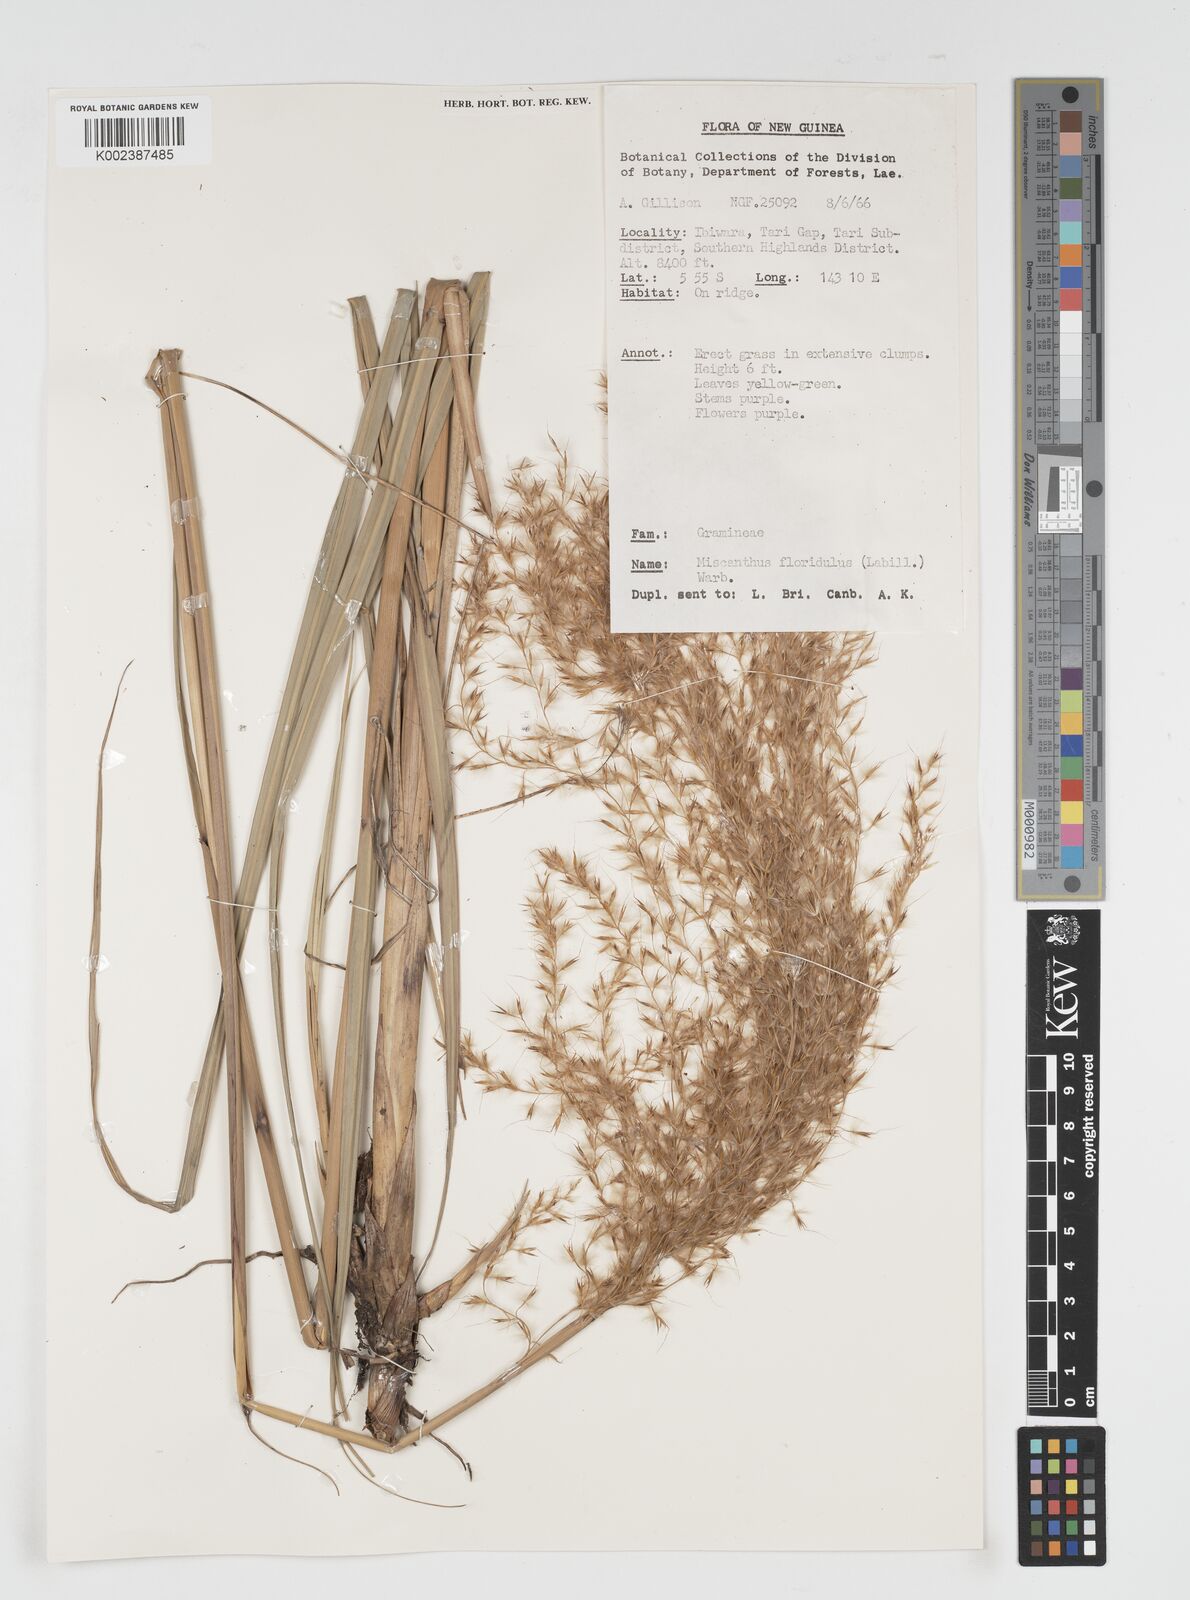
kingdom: Plantae
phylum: Tracheophyta
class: Liliopsida
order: Poales
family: Poaceae
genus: Miscanthus
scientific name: Miscanthus floridulus
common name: Pacific island silvergrass
